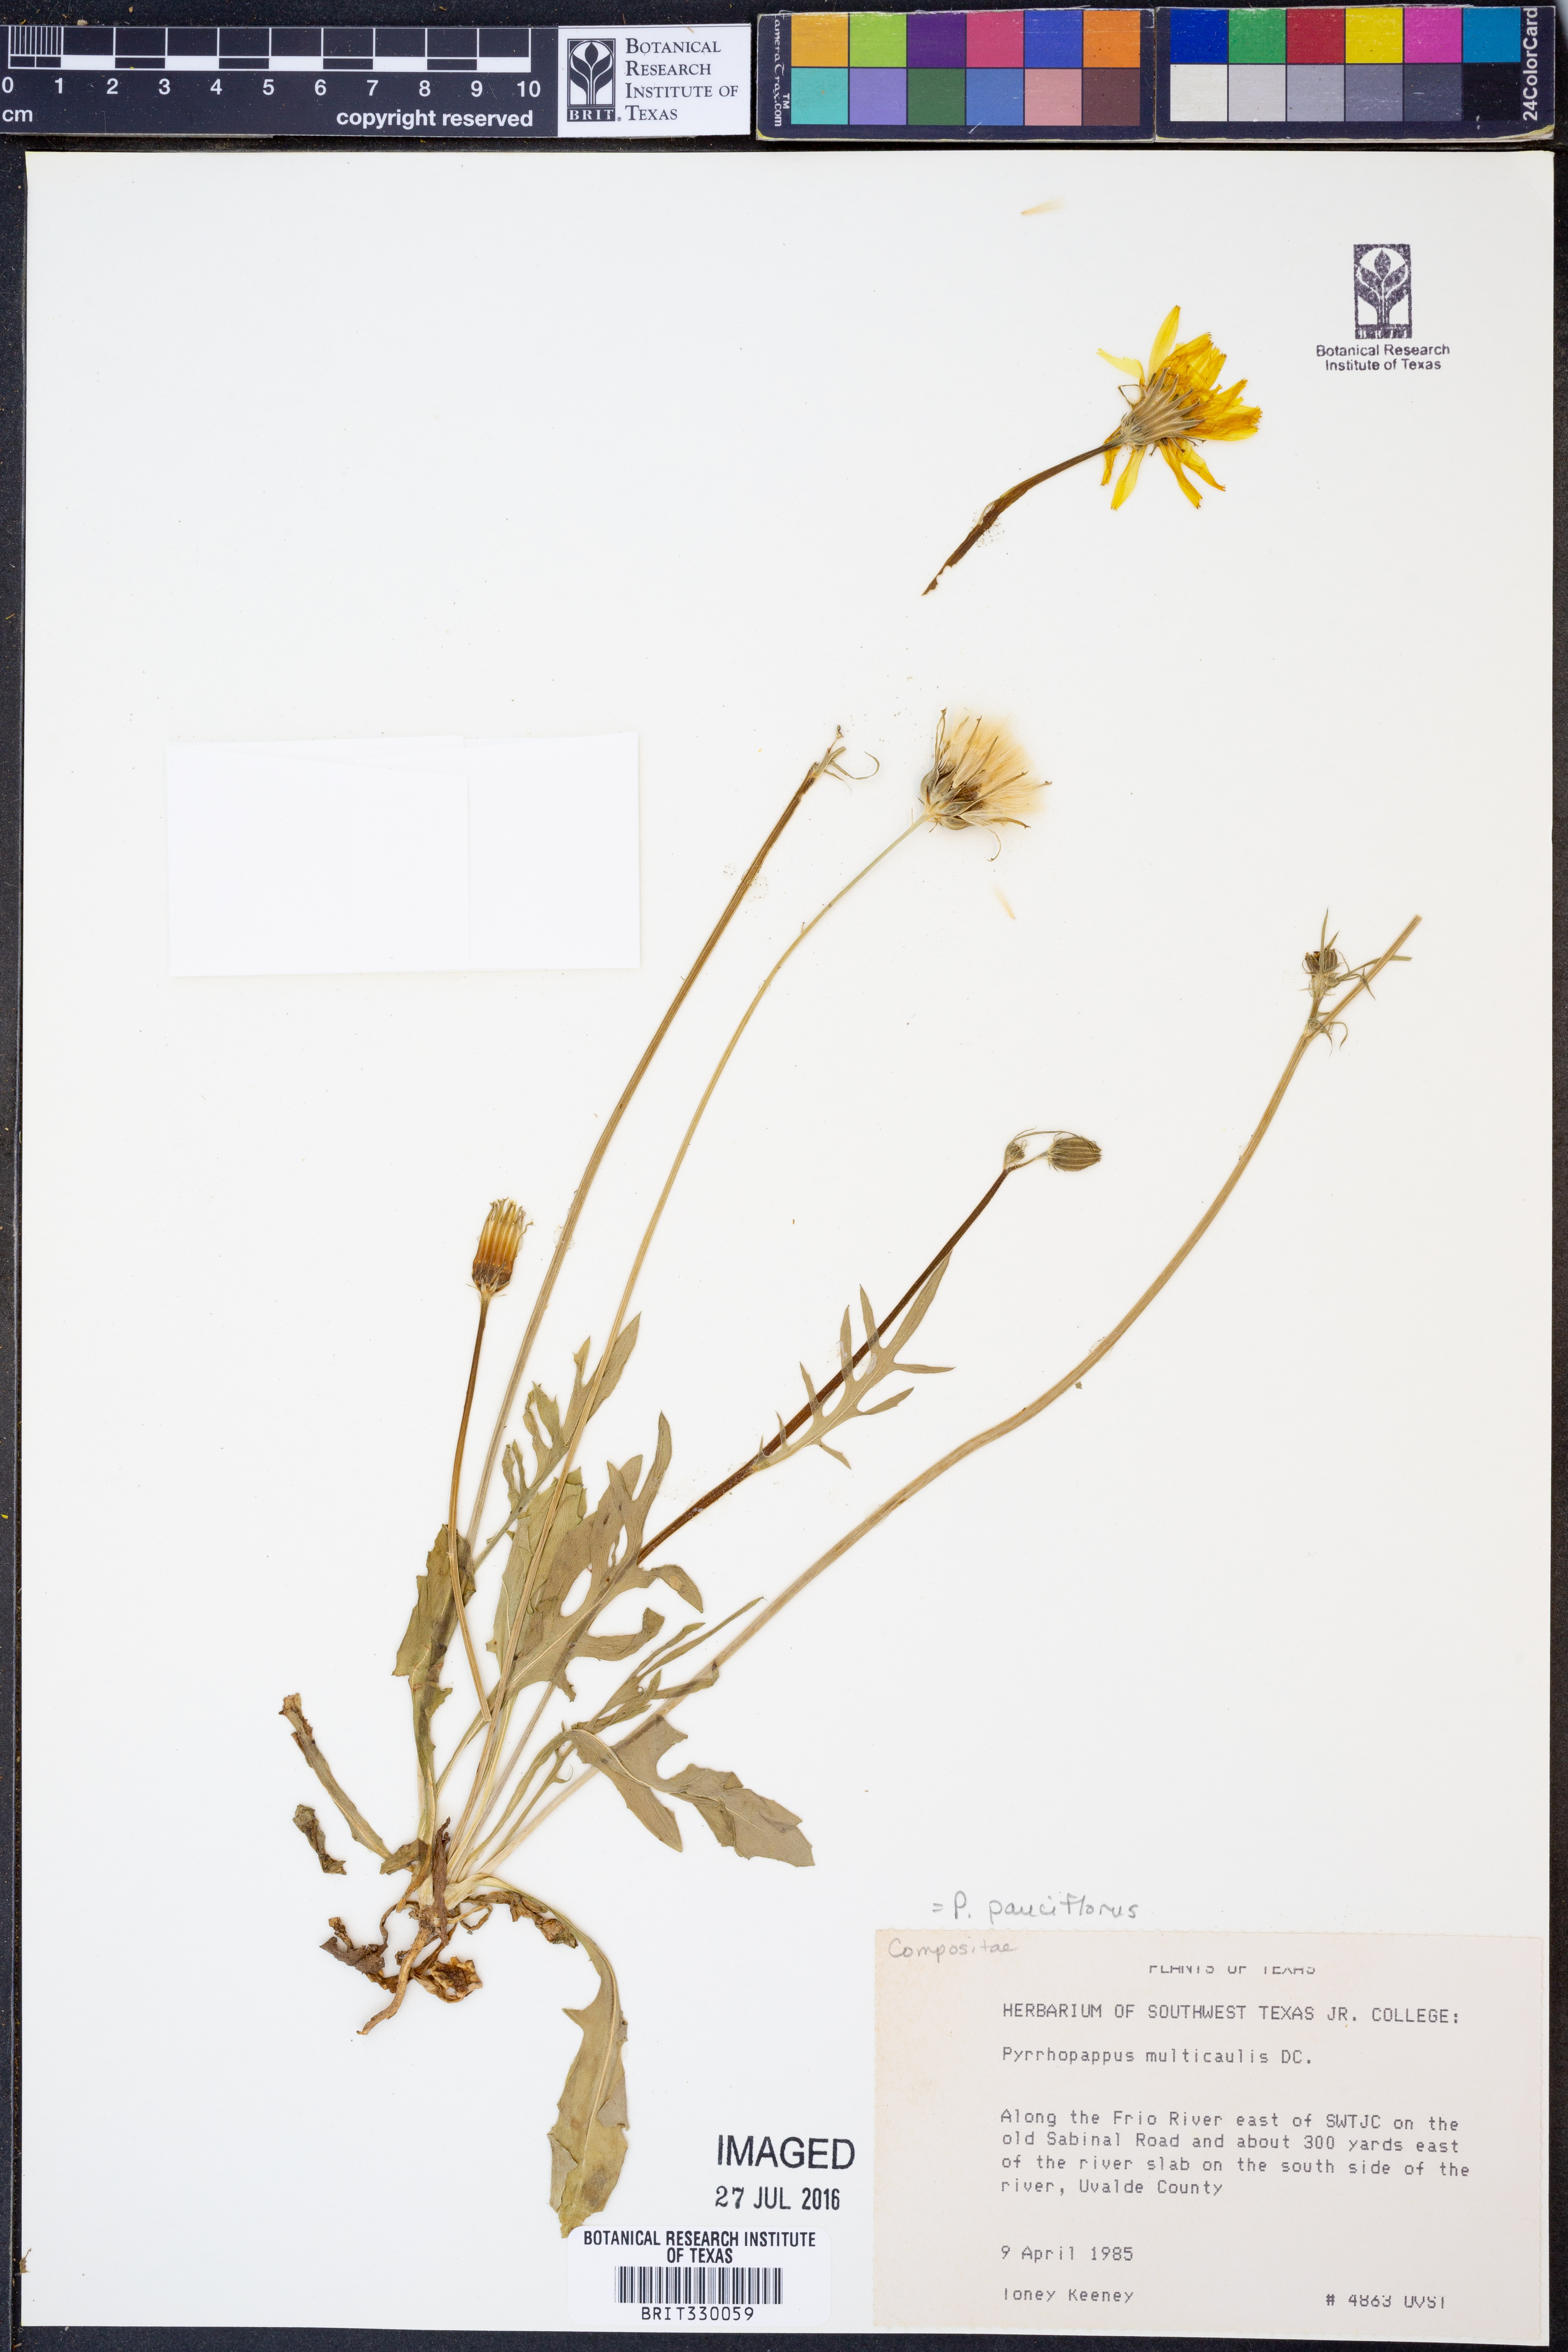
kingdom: Plantae
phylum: Tracheophyta
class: Magnoliopsida
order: Asterales
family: Asteraceae
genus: Pyrrhopappus
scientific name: Pyrrhopappus pauciflorus
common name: Texas false dandelion
